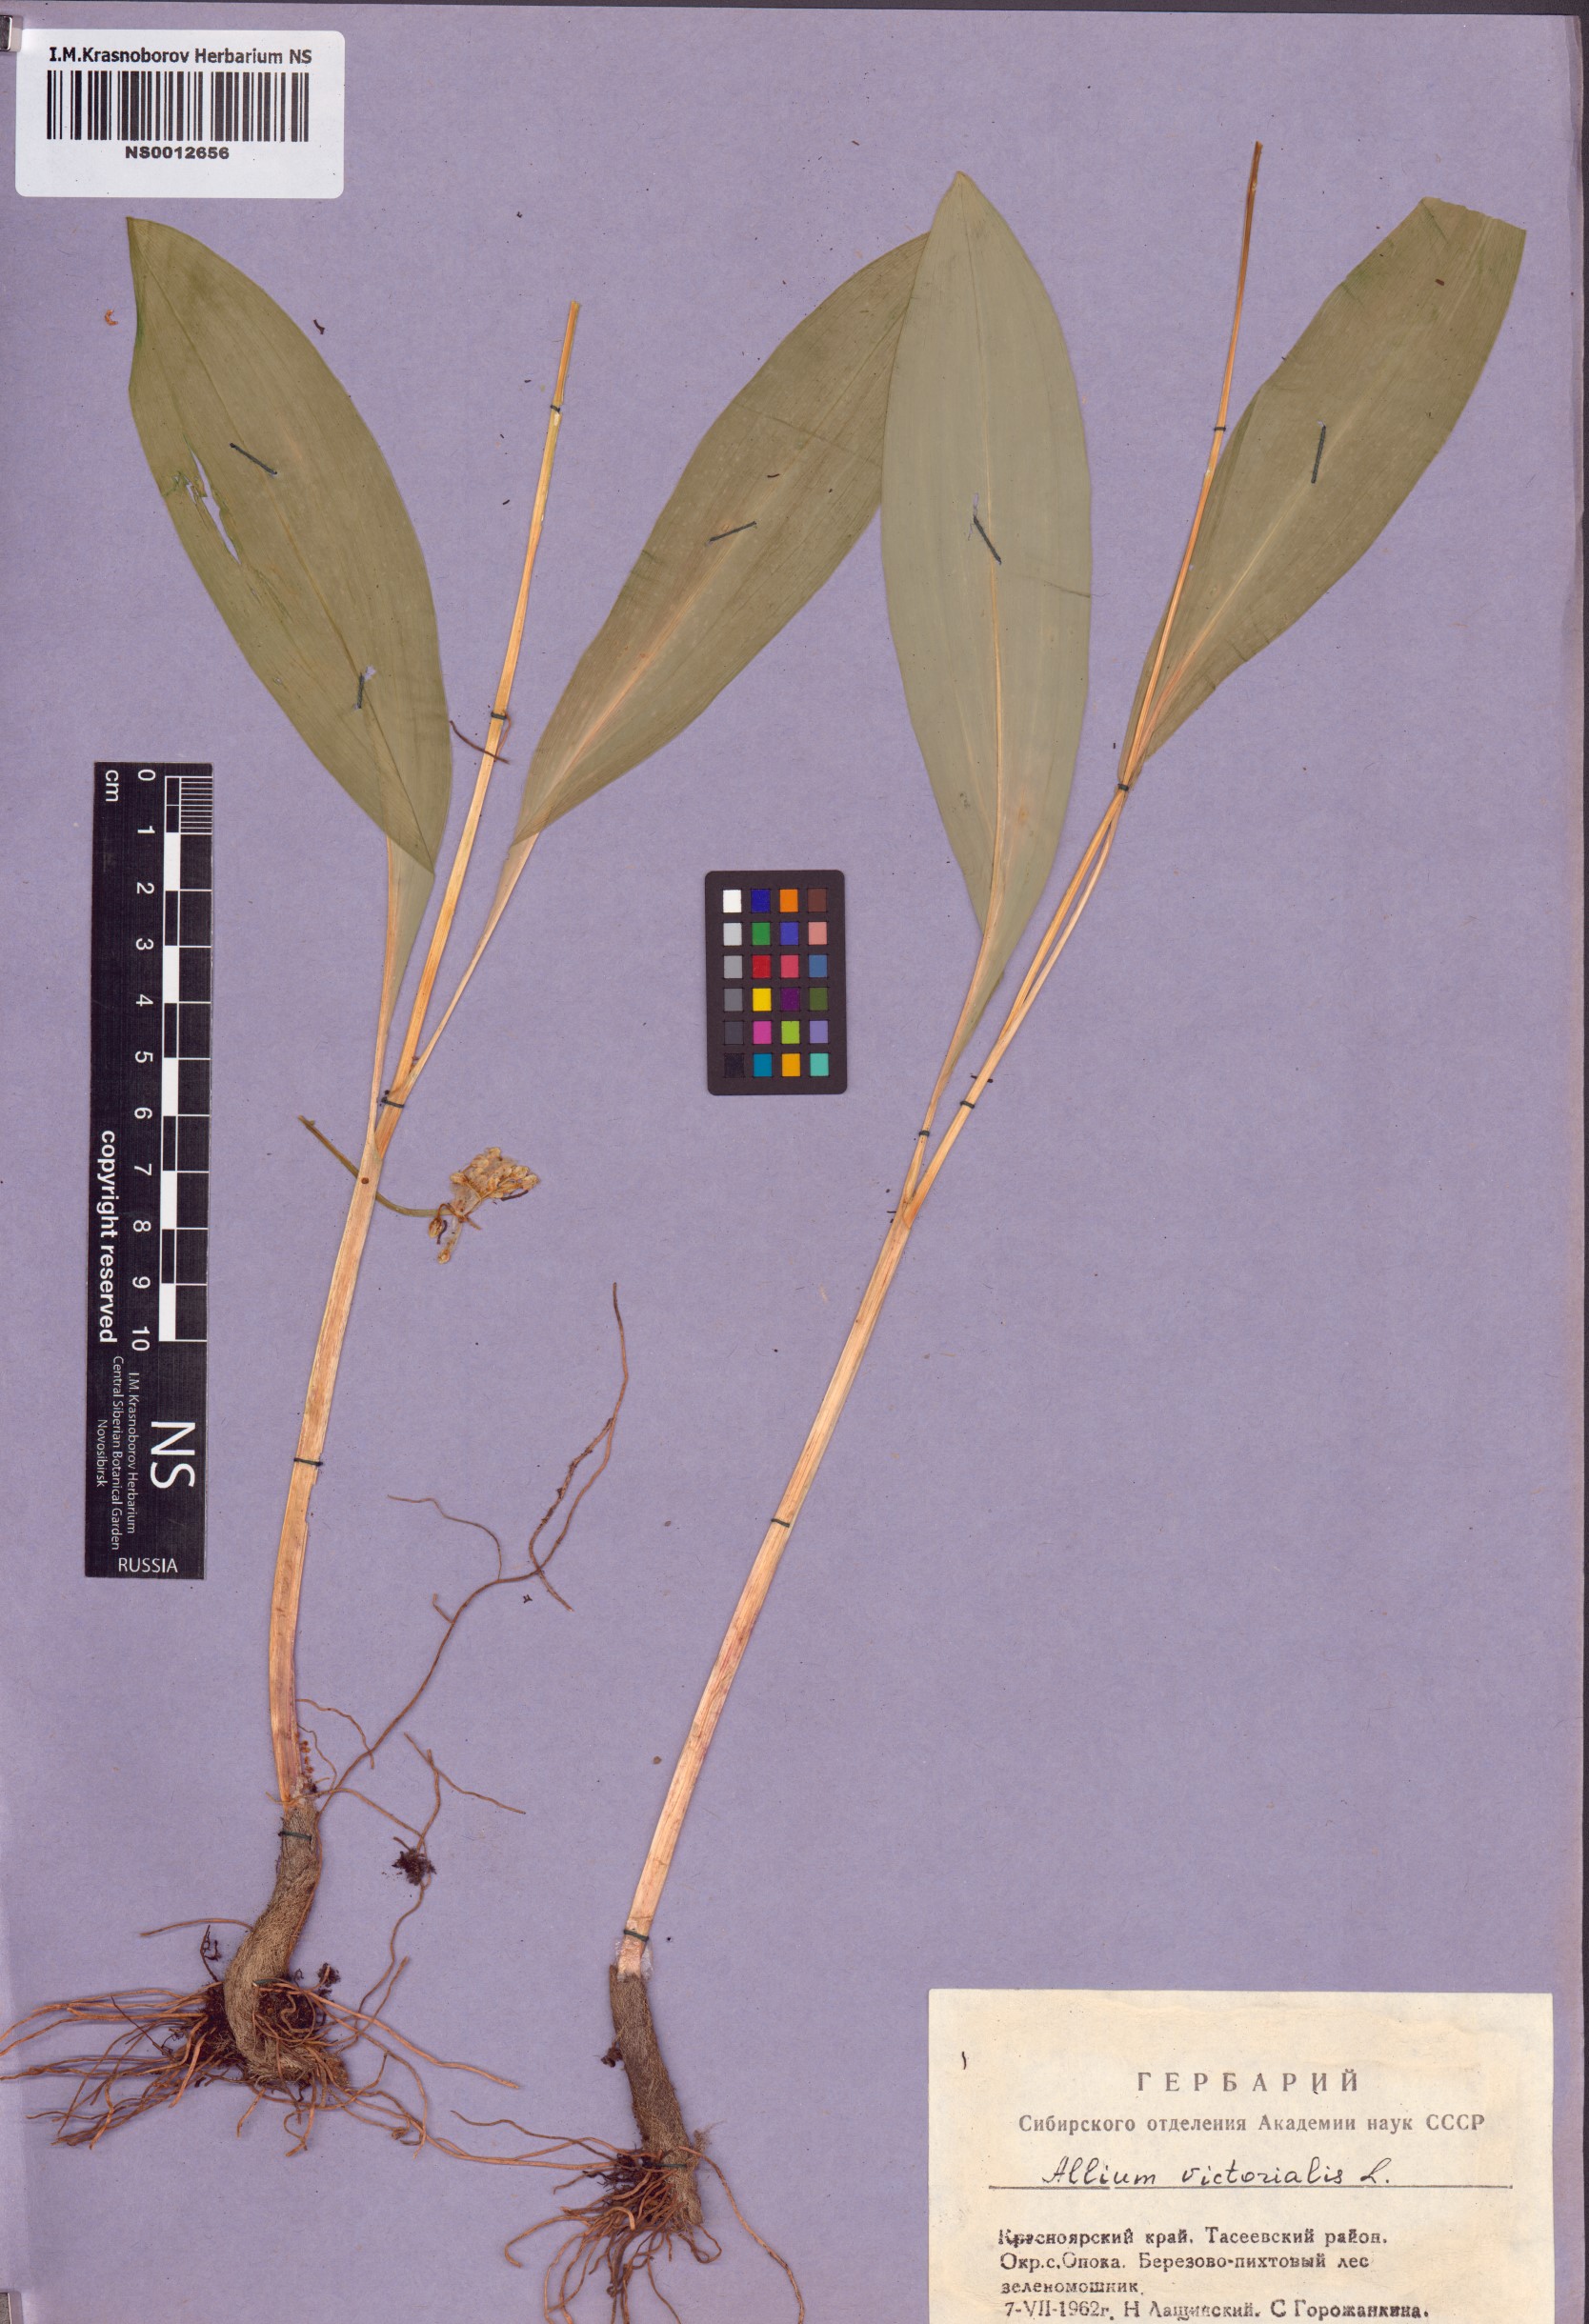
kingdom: Plantae
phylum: Tracheophyta
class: Liliopsida
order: Asparagales
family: Amaryllidaceae
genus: Allium
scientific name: Allium microdictyon
